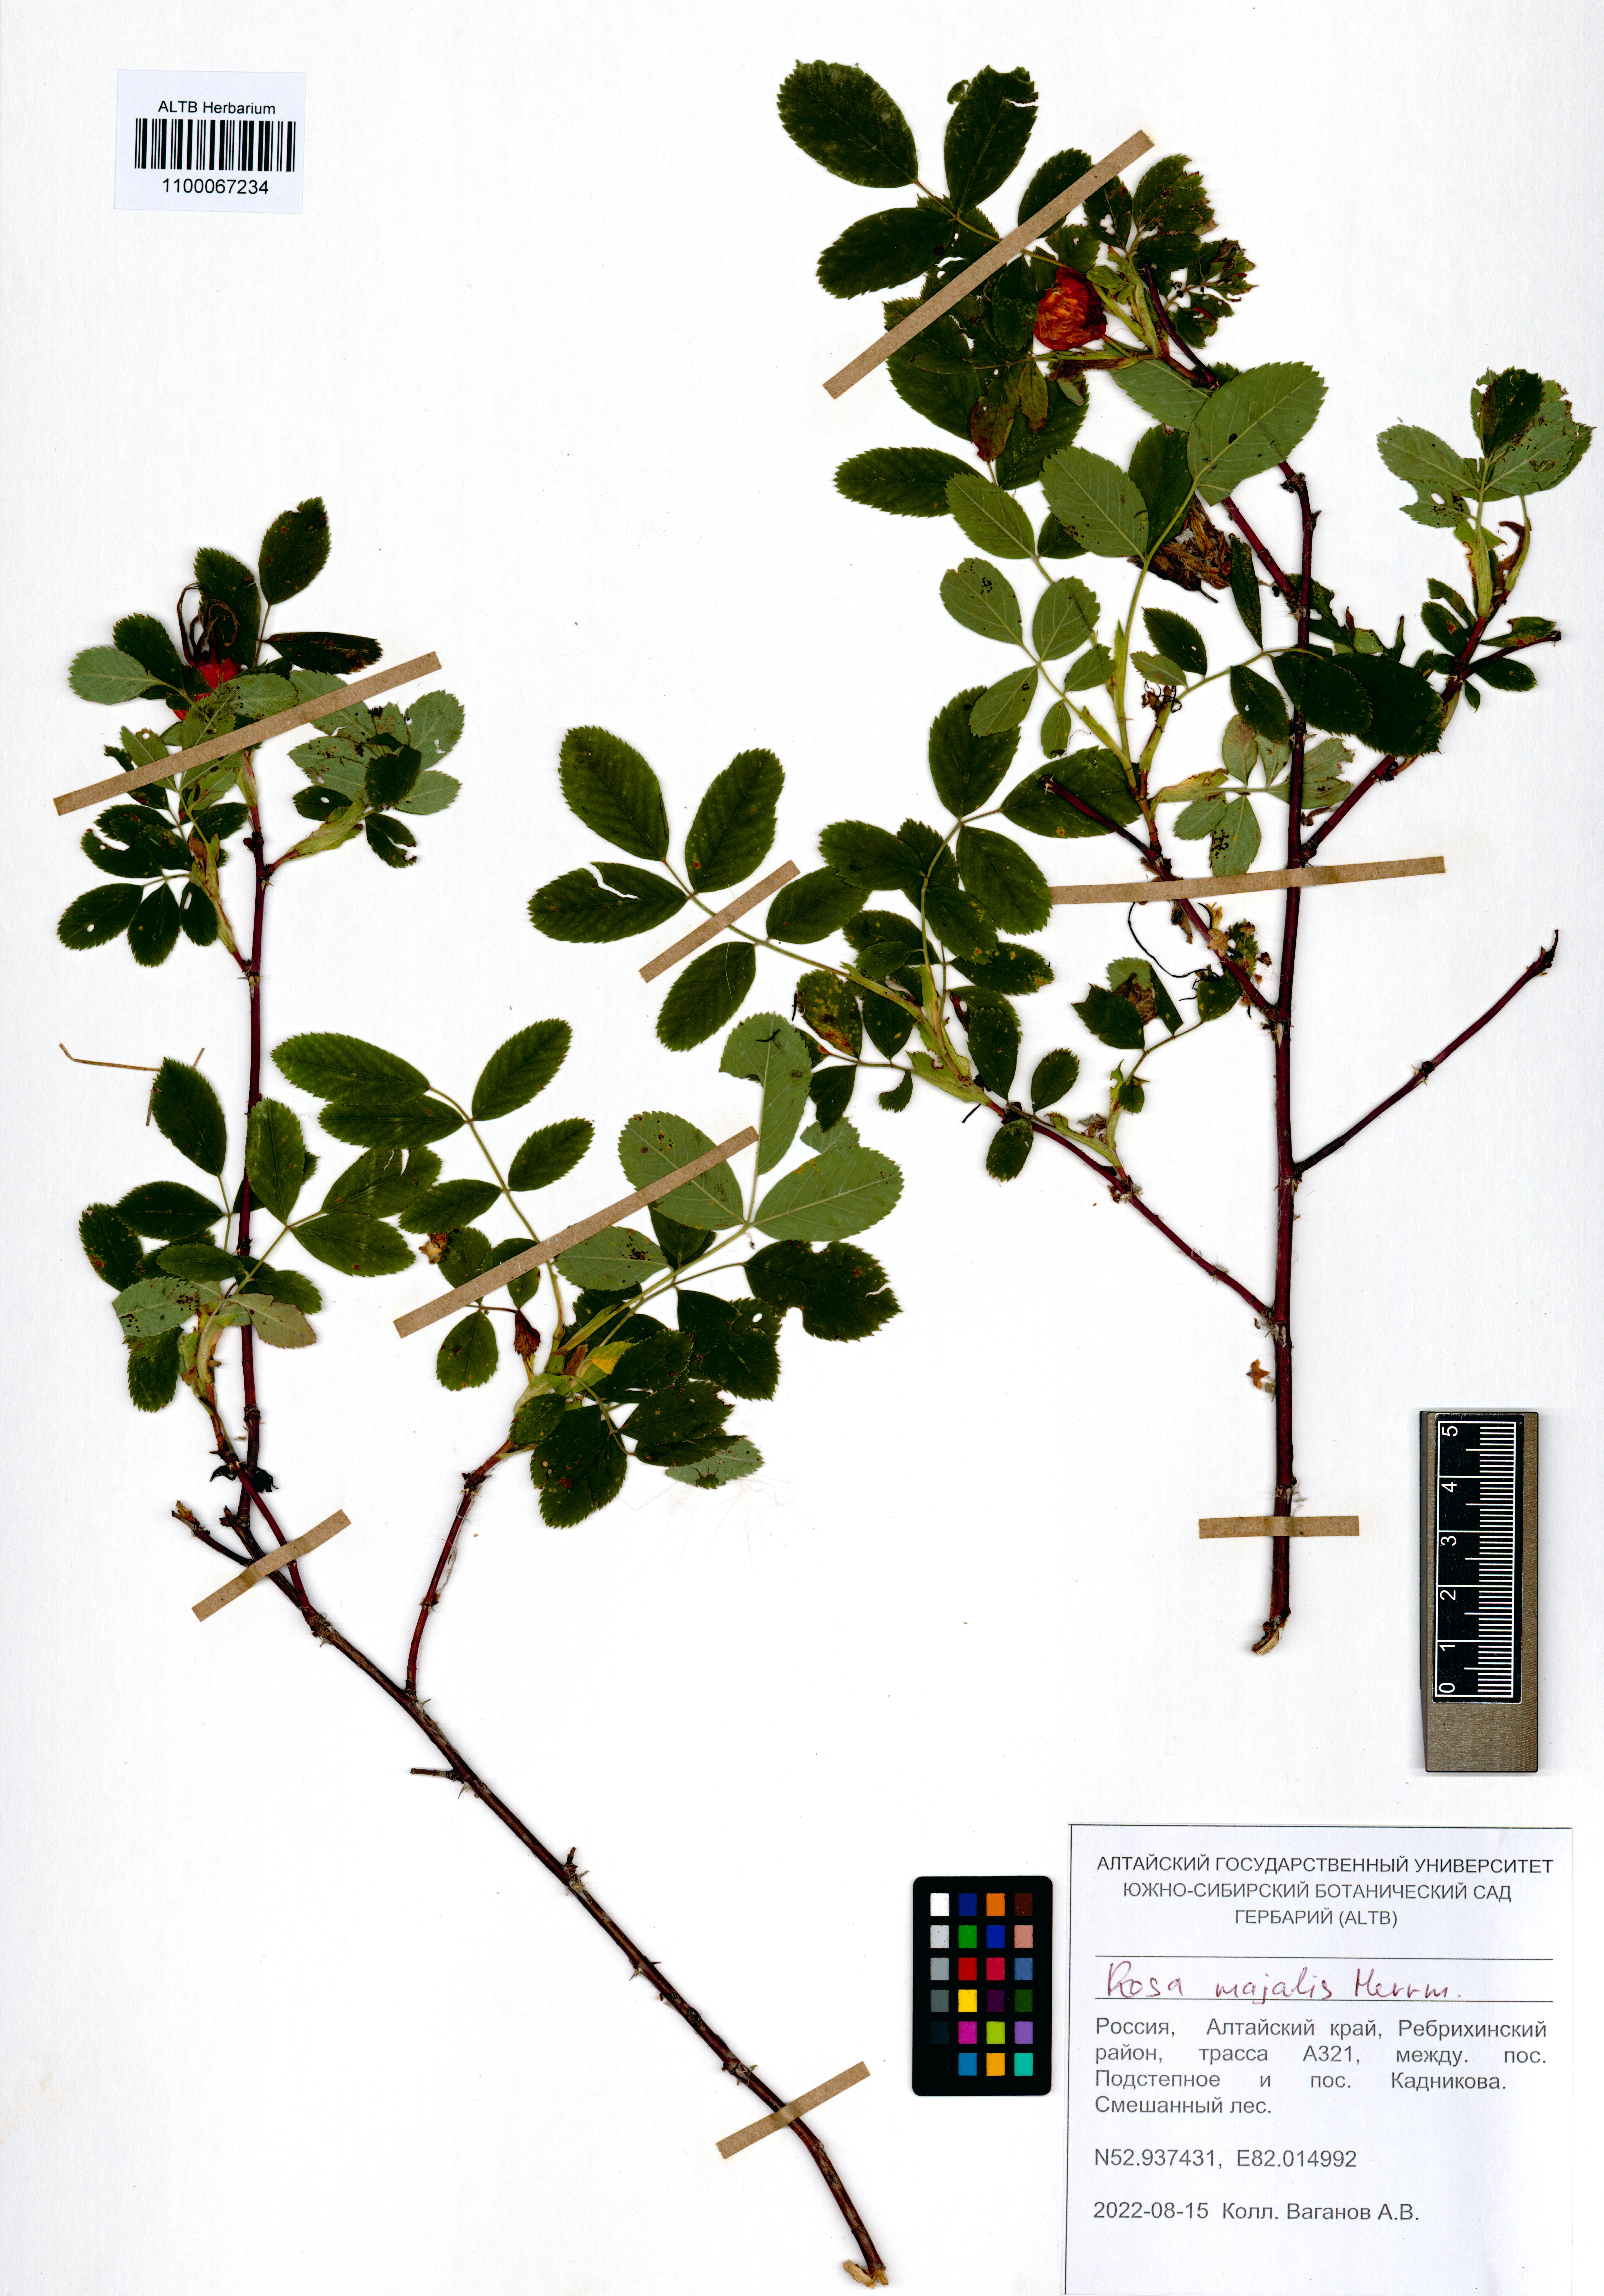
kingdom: Plantae
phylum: Tracheophyta
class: Magnoliopsida
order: Rosales
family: Rosaceae
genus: Rosa
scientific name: Rosa majalis
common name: Cinnamon rose
